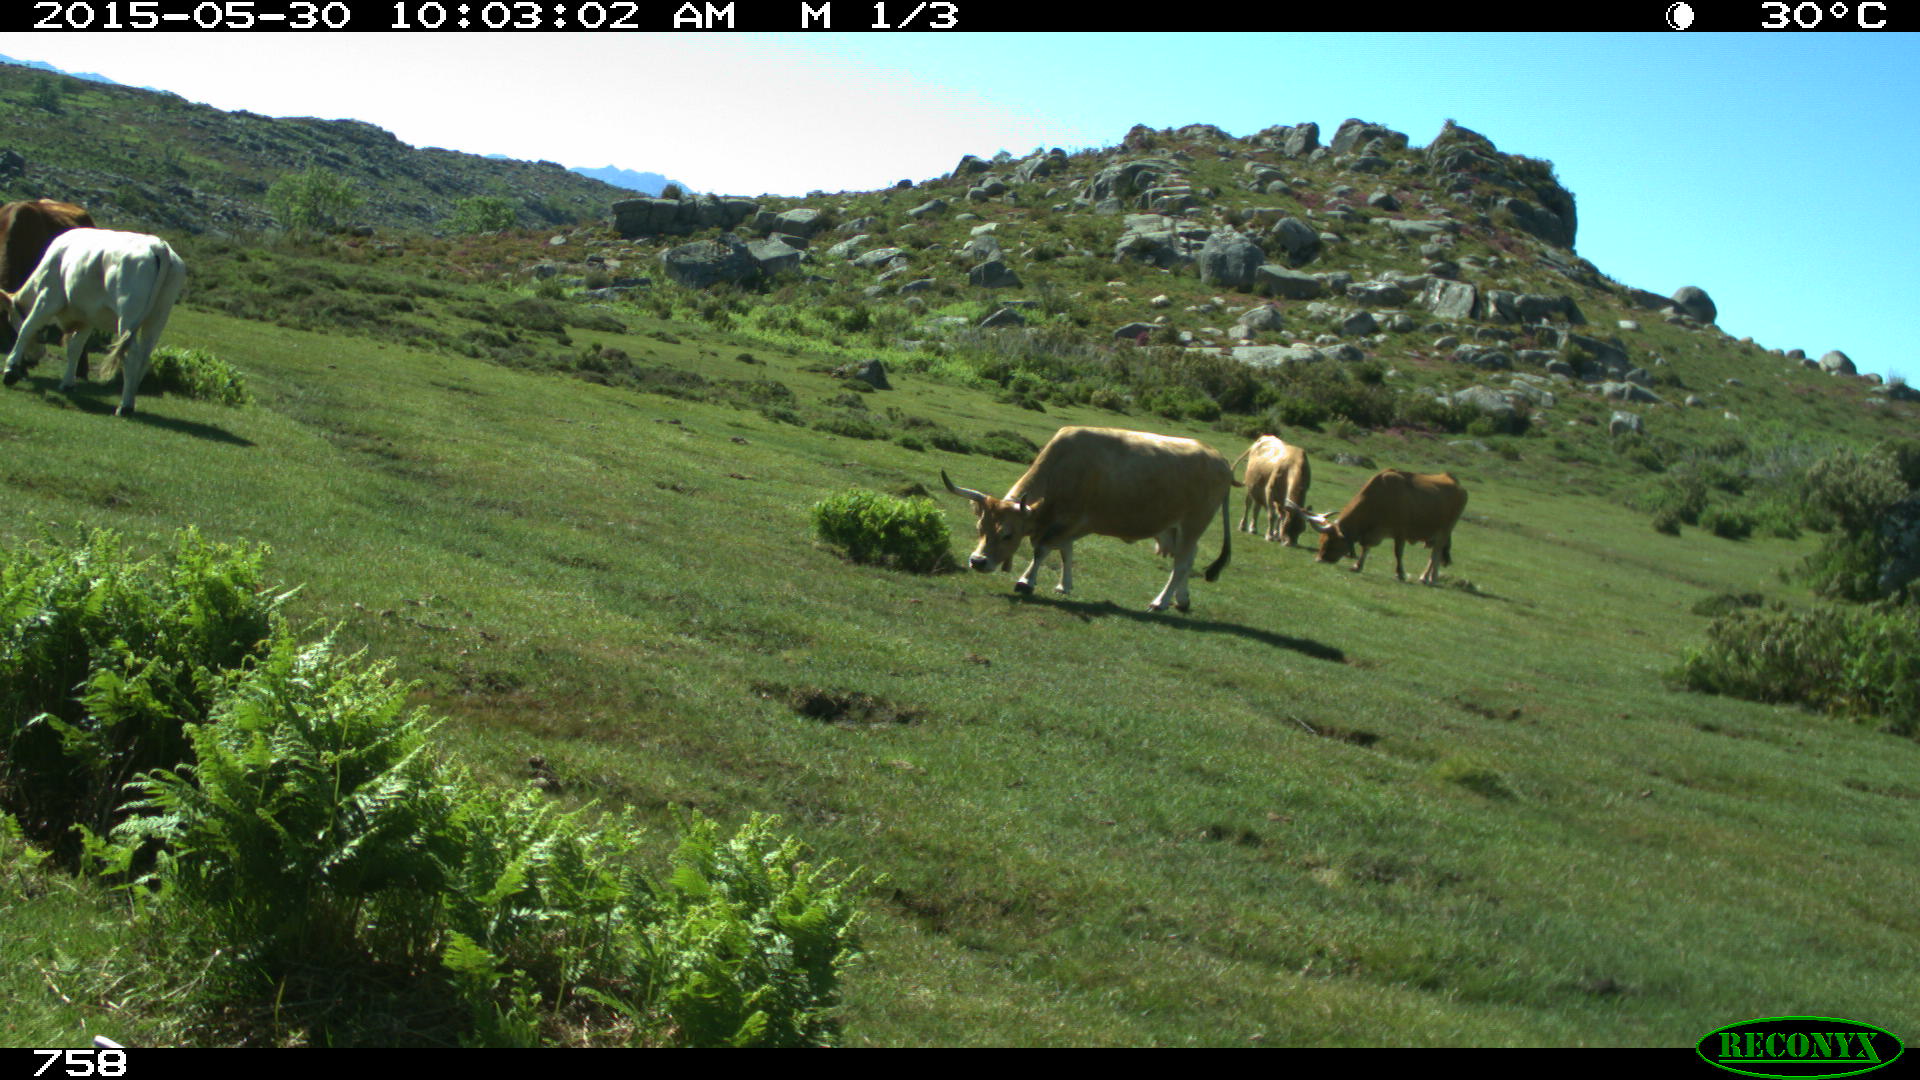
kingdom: Animalia
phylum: Chordata
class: Mammalia
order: Artiodactyla
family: Bovidae
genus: Bos
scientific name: Bos taurus
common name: Domesticated cattle
